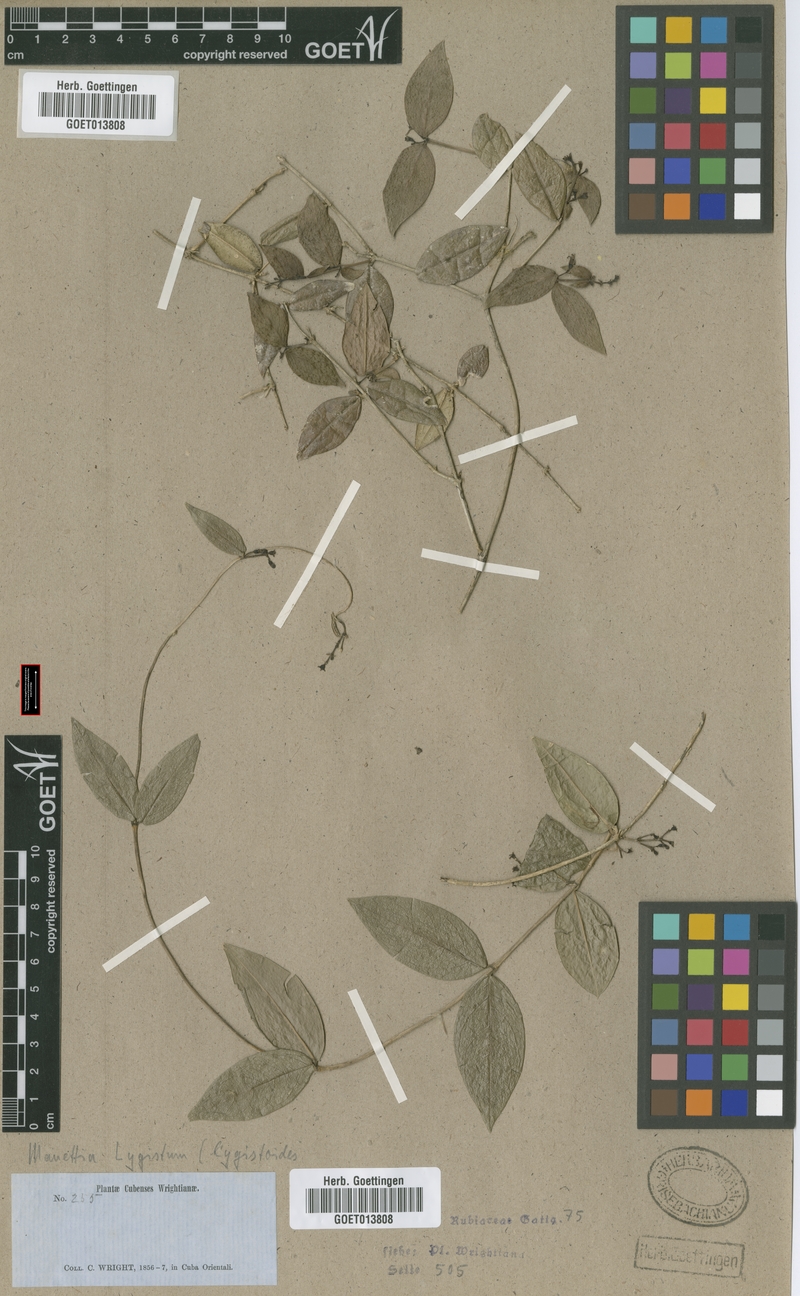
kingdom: Plantae
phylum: Tracheophyta
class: Magnoliopsida
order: Gentianales
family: Rubiaceae
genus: Manettia
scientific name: Manettia lygistum
